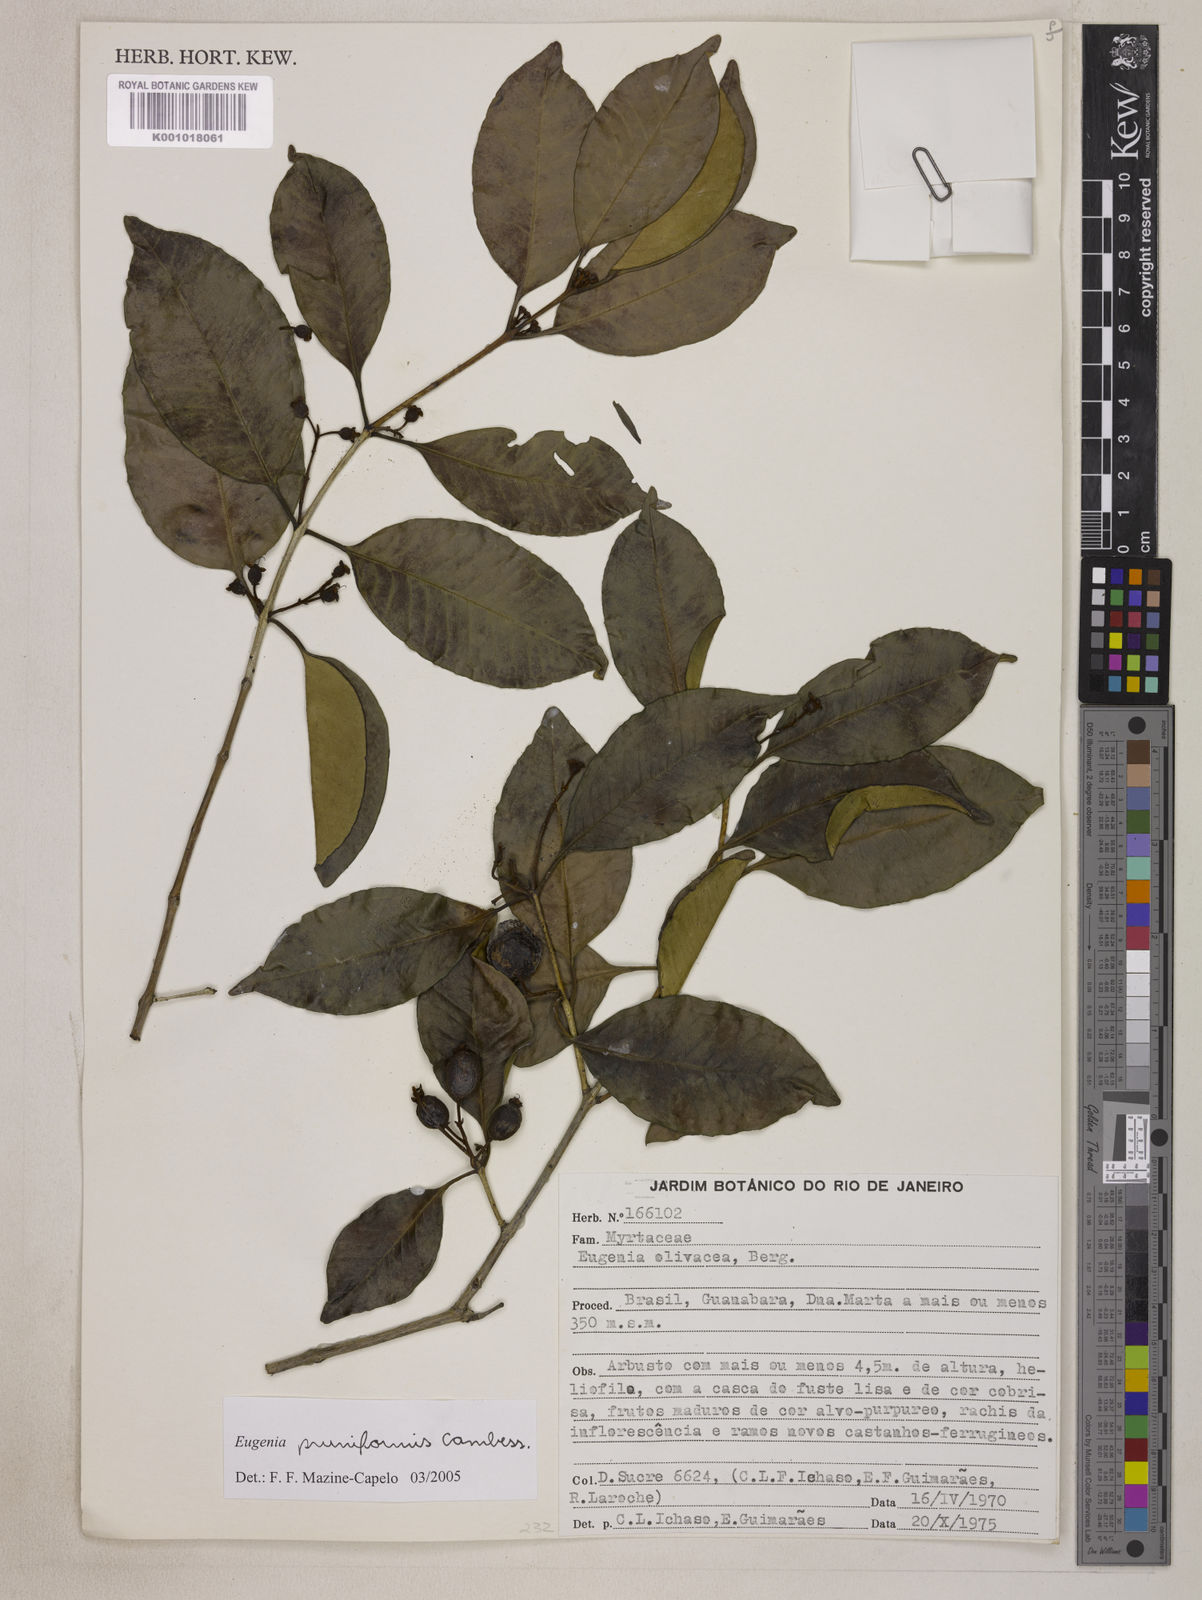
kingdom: Plantae
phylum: Tracheophyta
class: Magnoliopsida
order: Myrtales
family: Myrtaceae
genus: Eugenia
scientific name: Eugenia pruniformis
